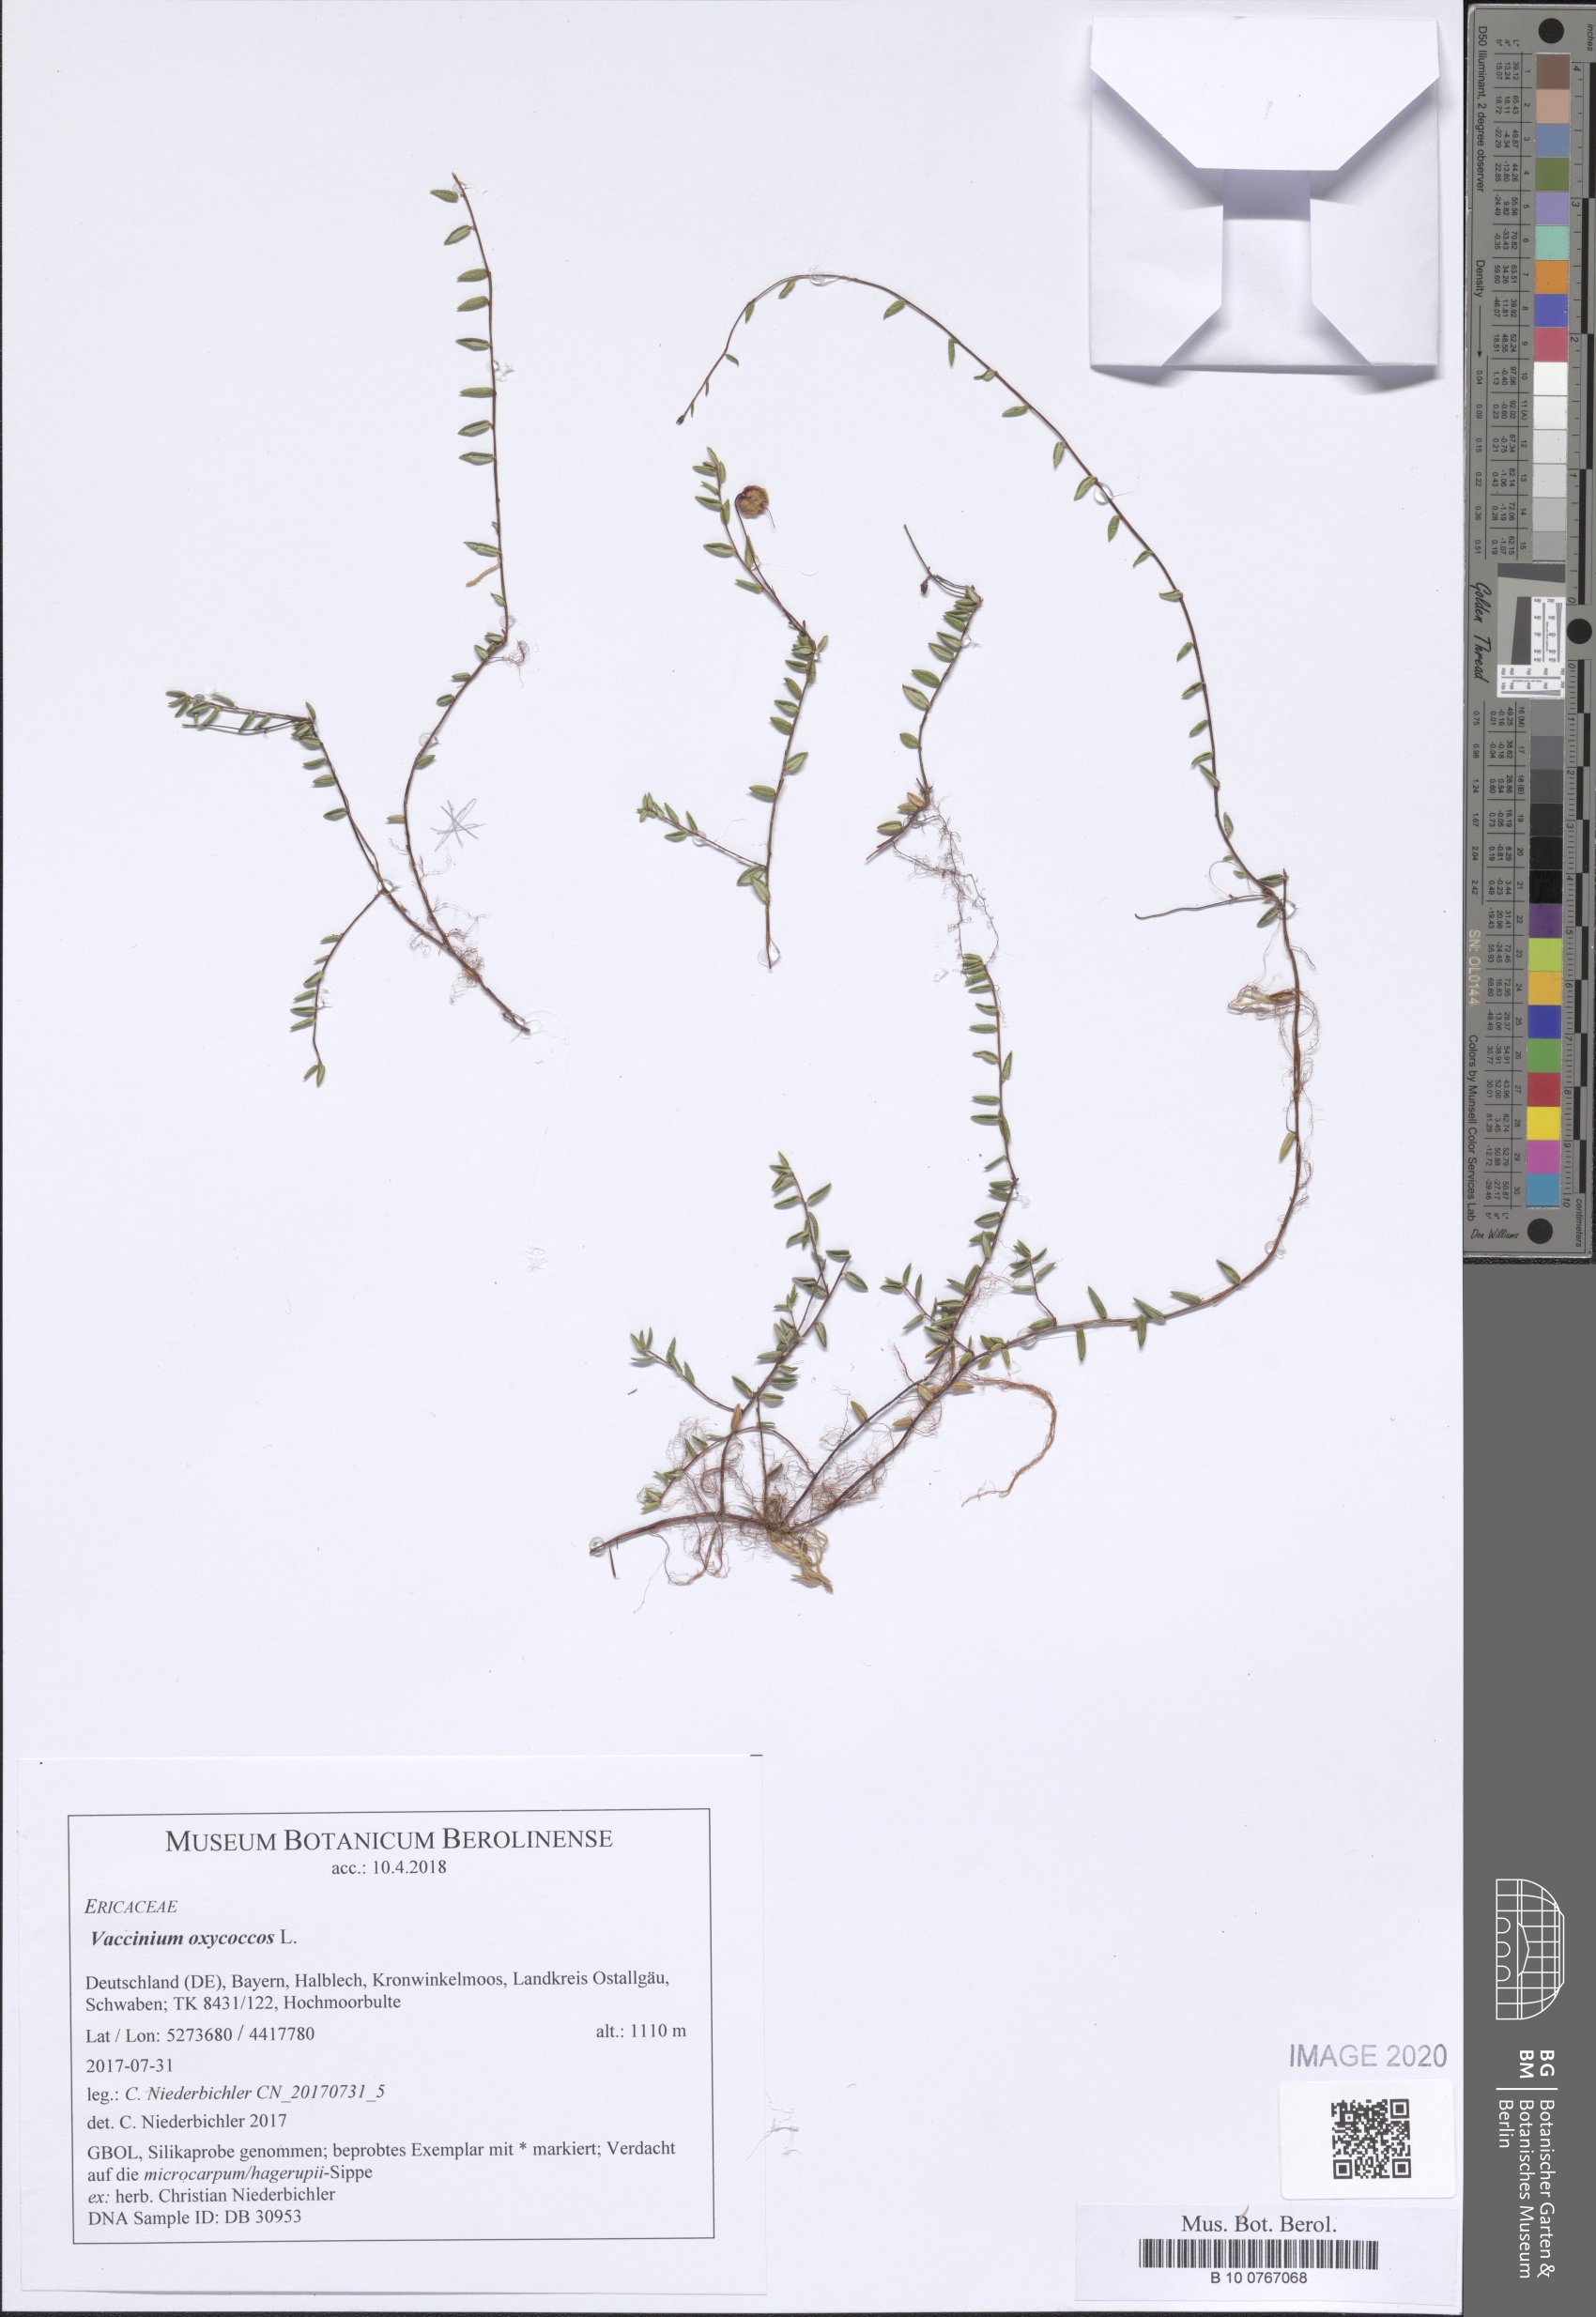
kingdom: Plantae
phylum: Tracheophyta
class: Magnoliopsida
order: Ericales
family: Ericaceae
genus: Vaccinium
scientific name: Vaccinium oxycoccos
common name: Cranberry
